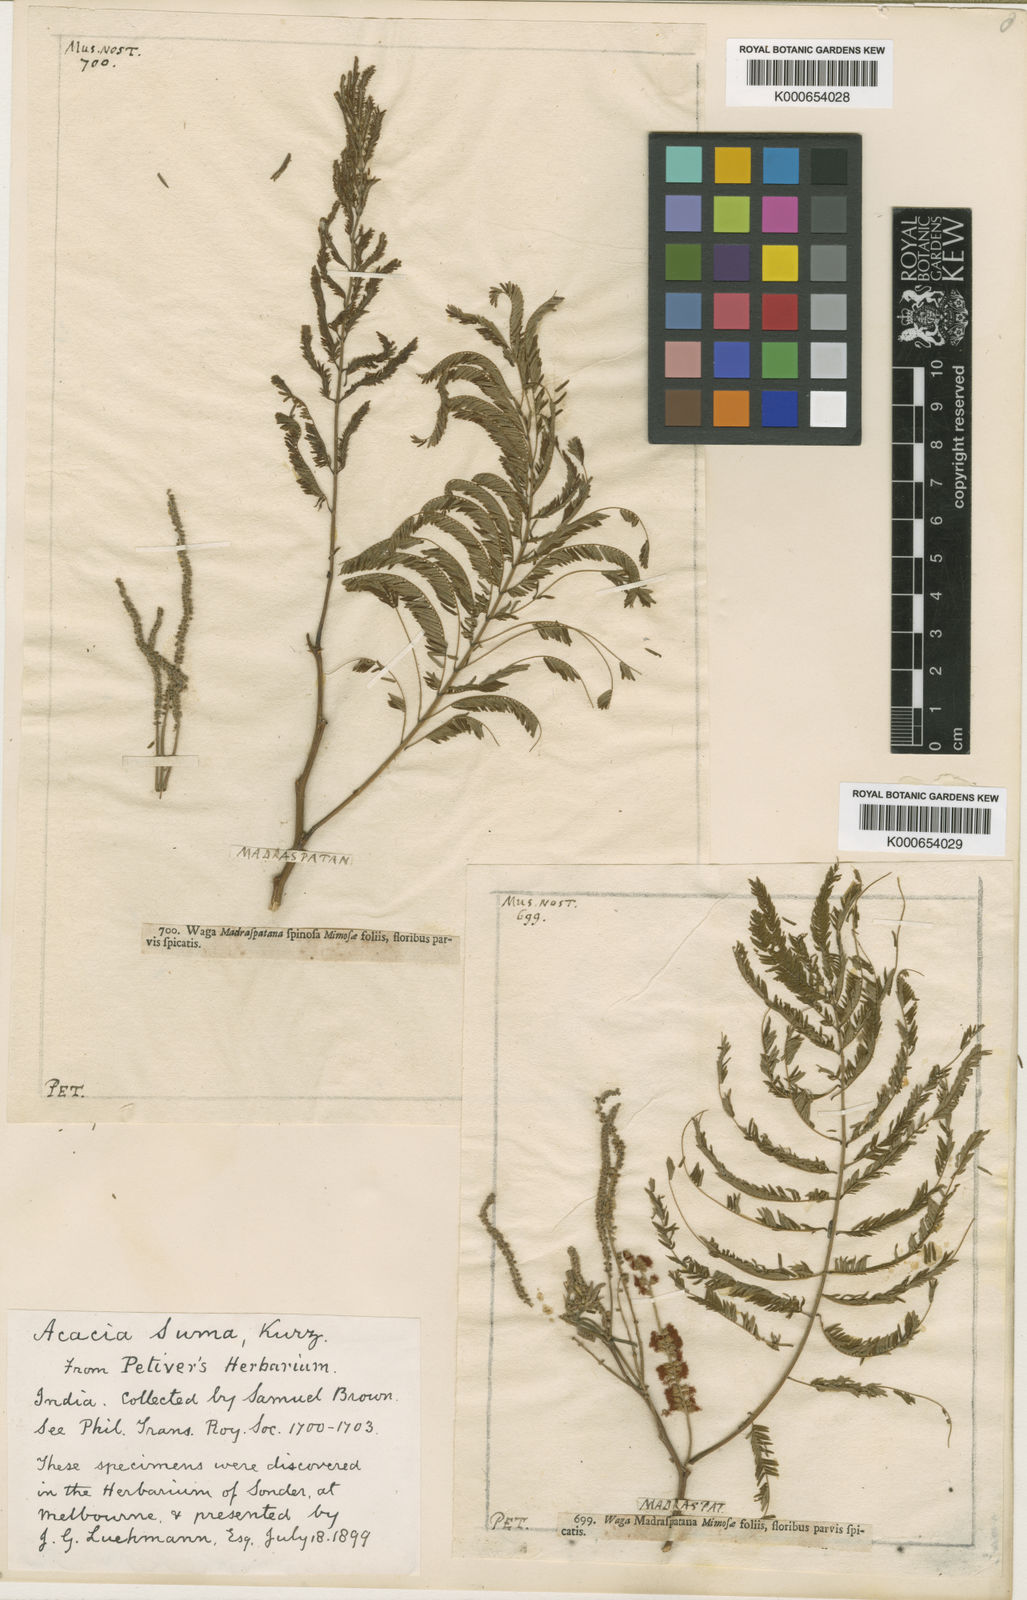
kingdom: Plantae
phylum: Tracheophyta
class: Magnoliopsida
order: Fabales
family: Fabaceae
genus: Senegalia
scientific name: Senegalia polyacantha
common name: Whitethorn
